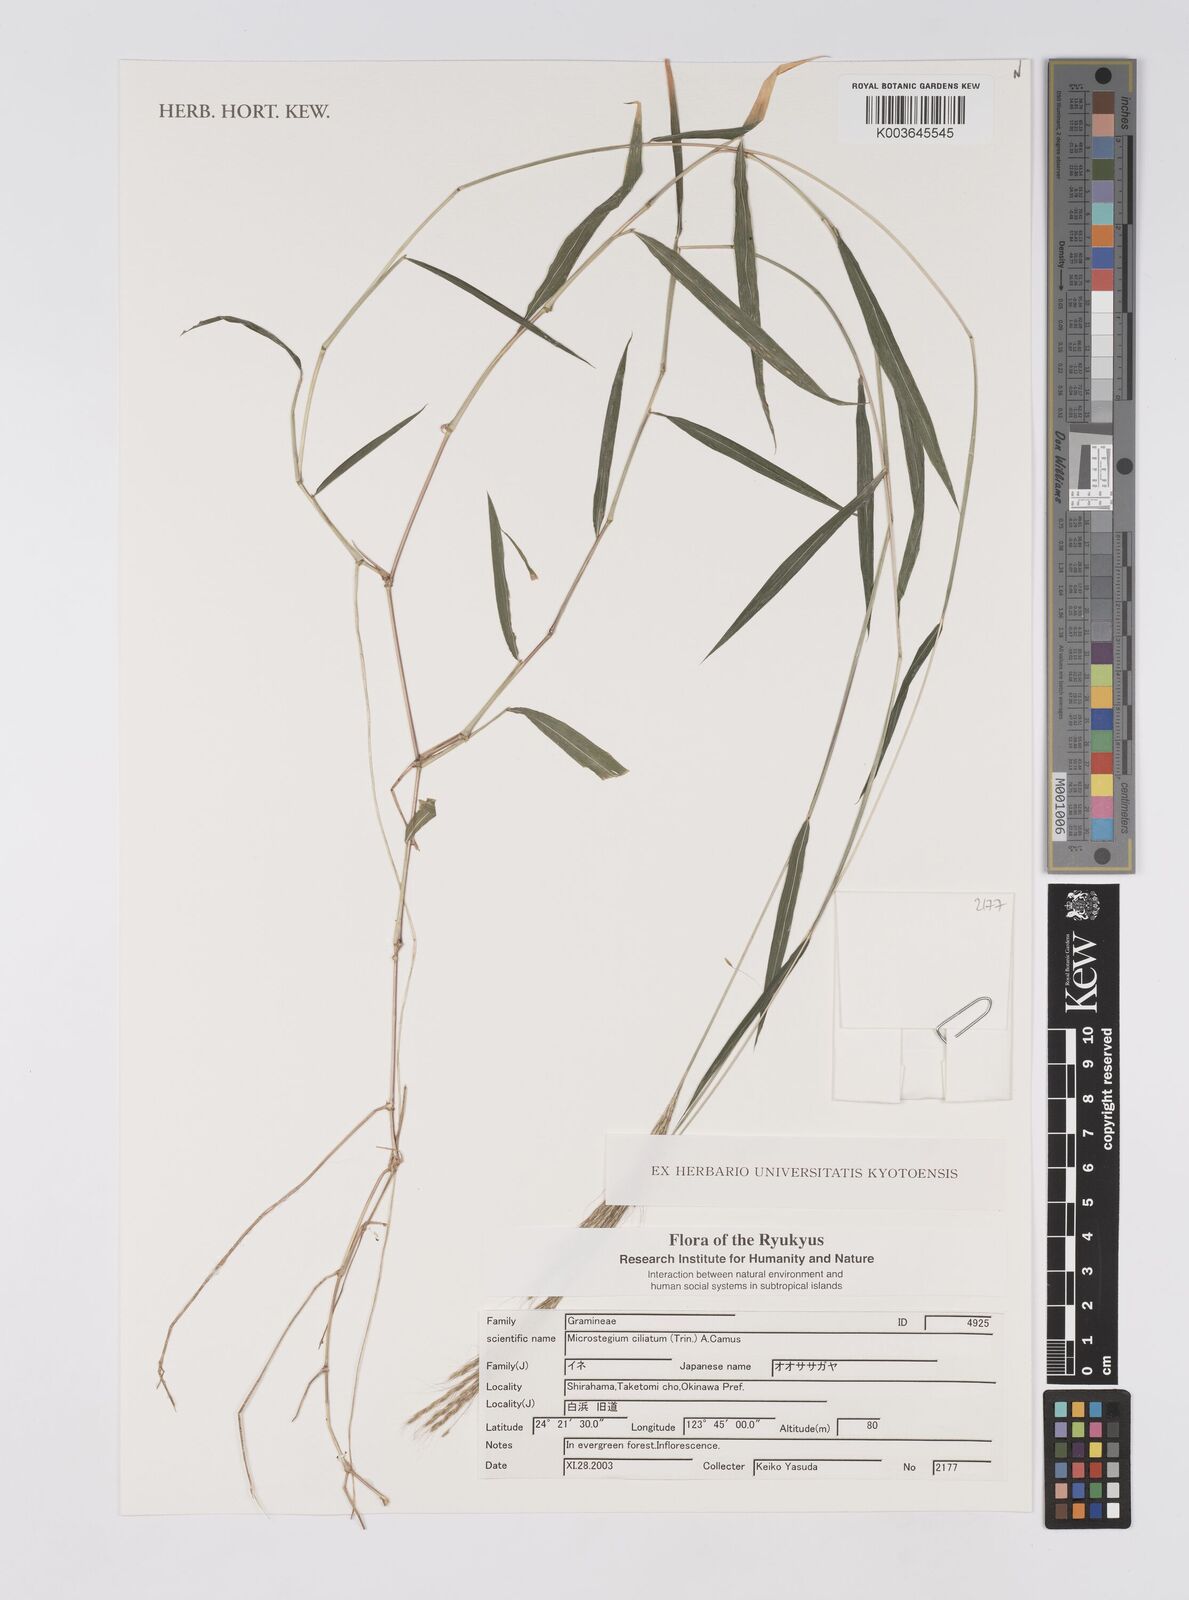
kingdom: Plantae
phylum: Tracheophyta
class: Liliopsida
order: Poales
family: Poaceae
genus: Microstegium
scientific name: Microstegium fasciculatum
